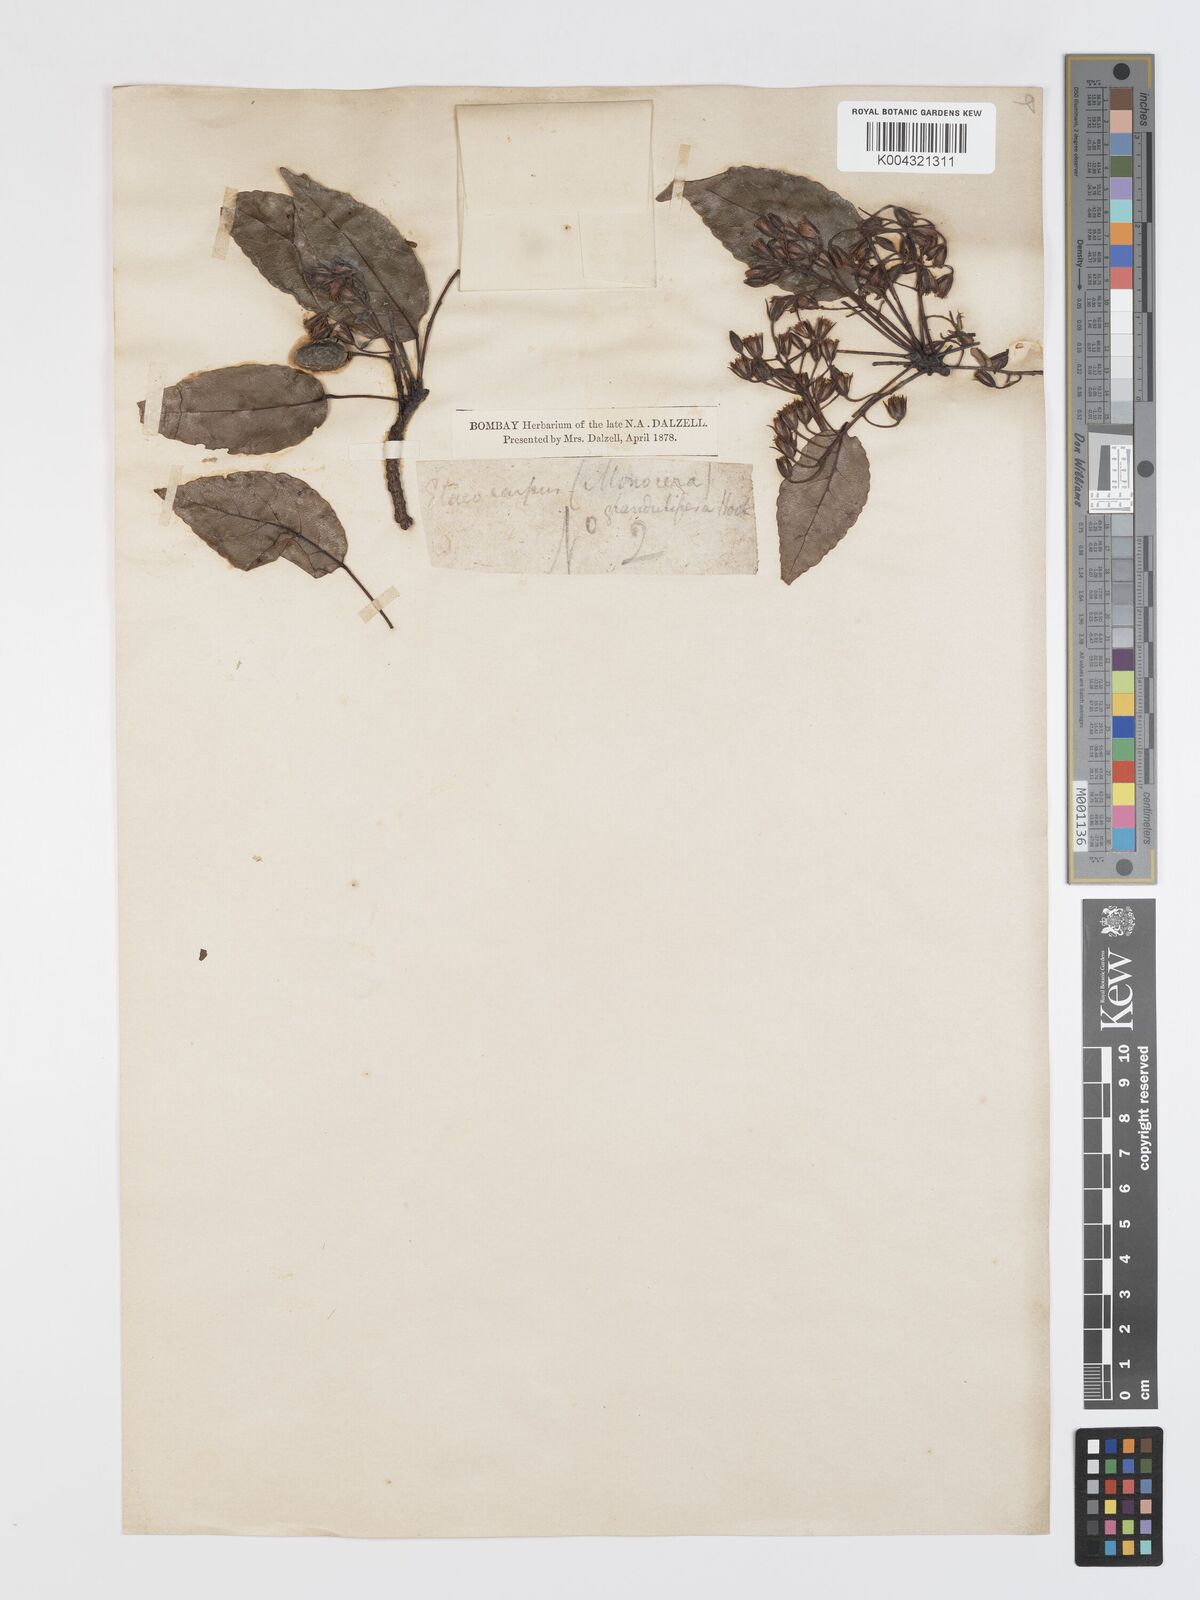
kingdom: Plantae
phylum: Tracheophyta
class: Magnoliopsida
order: Oxalidales
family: Elaeocarpaceae
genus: Elaeocarpus
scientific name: Elaeocarpus glandulifer
